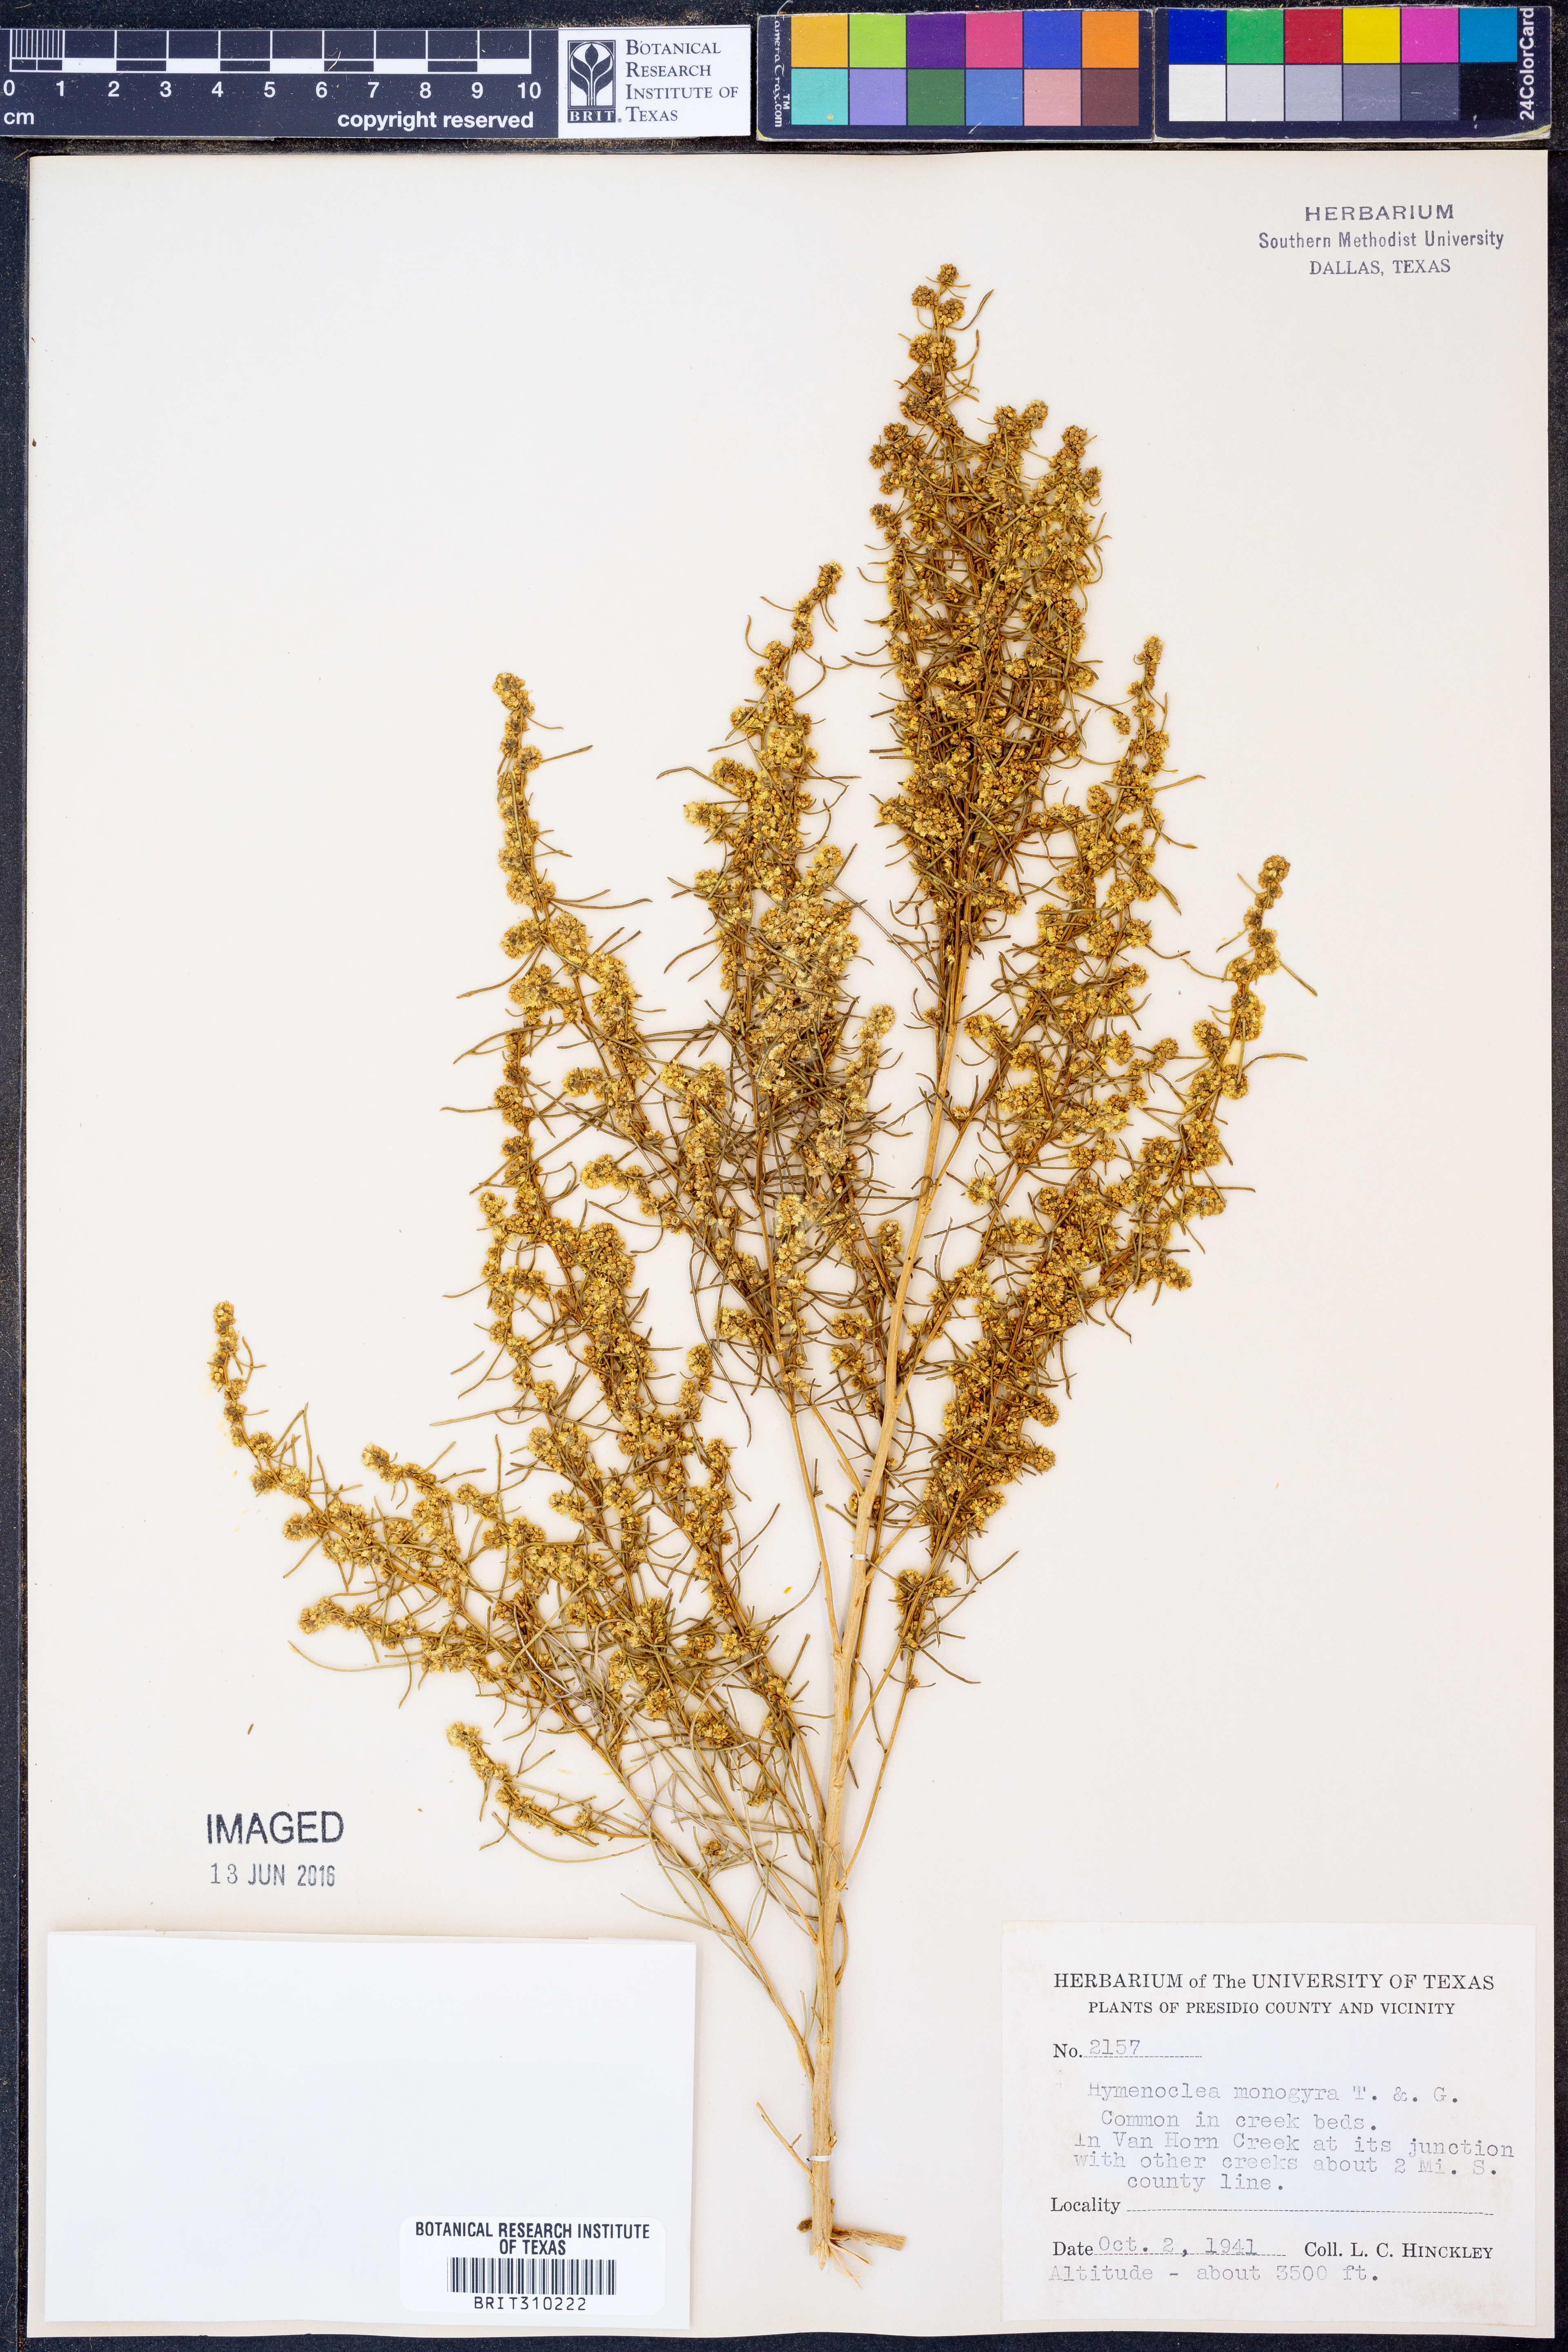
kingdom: Plantae
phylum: Tracheophyta
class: Magnoliopsida
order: Asterales
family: Asteraceae
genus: Ambrosia
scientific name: Ambrosia monogyra
